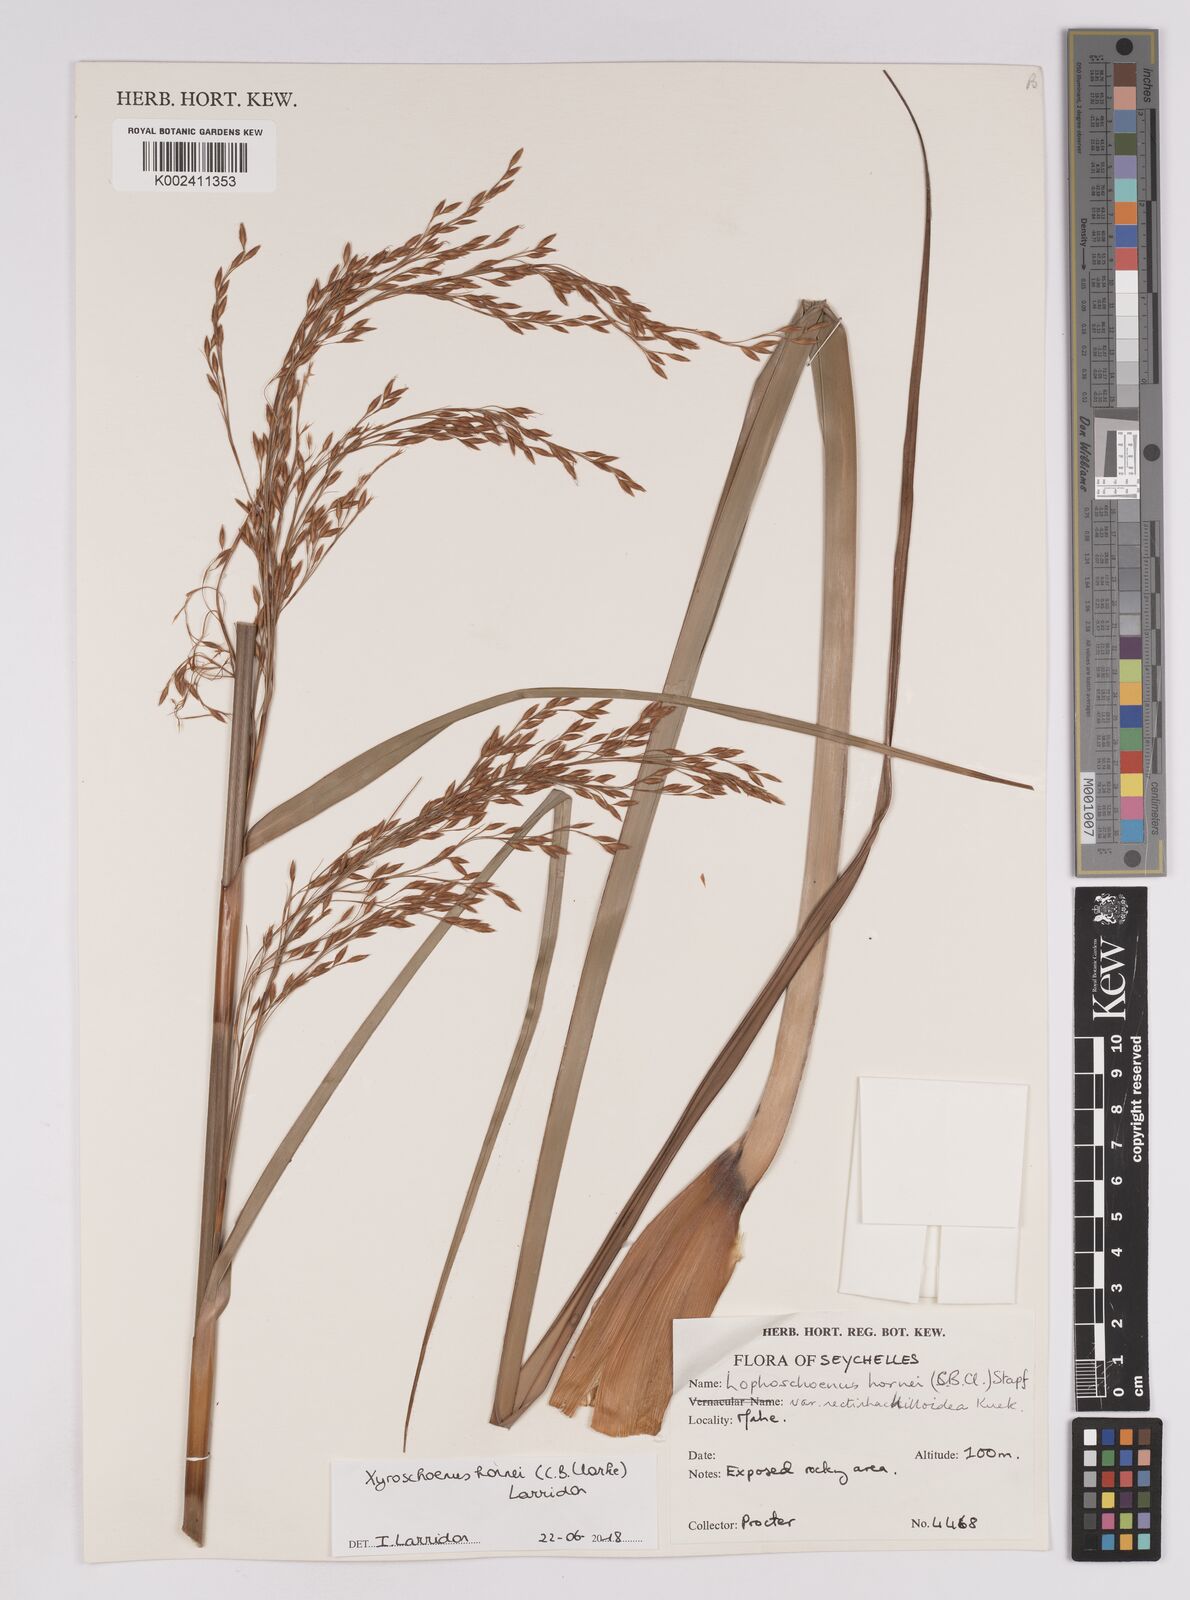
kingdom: Plantae
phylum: Tracheophyta
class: Liliopsida
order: Poales
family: Cyperaceae
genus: Xyroschoenus
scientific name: Xyroschoenus hornei
